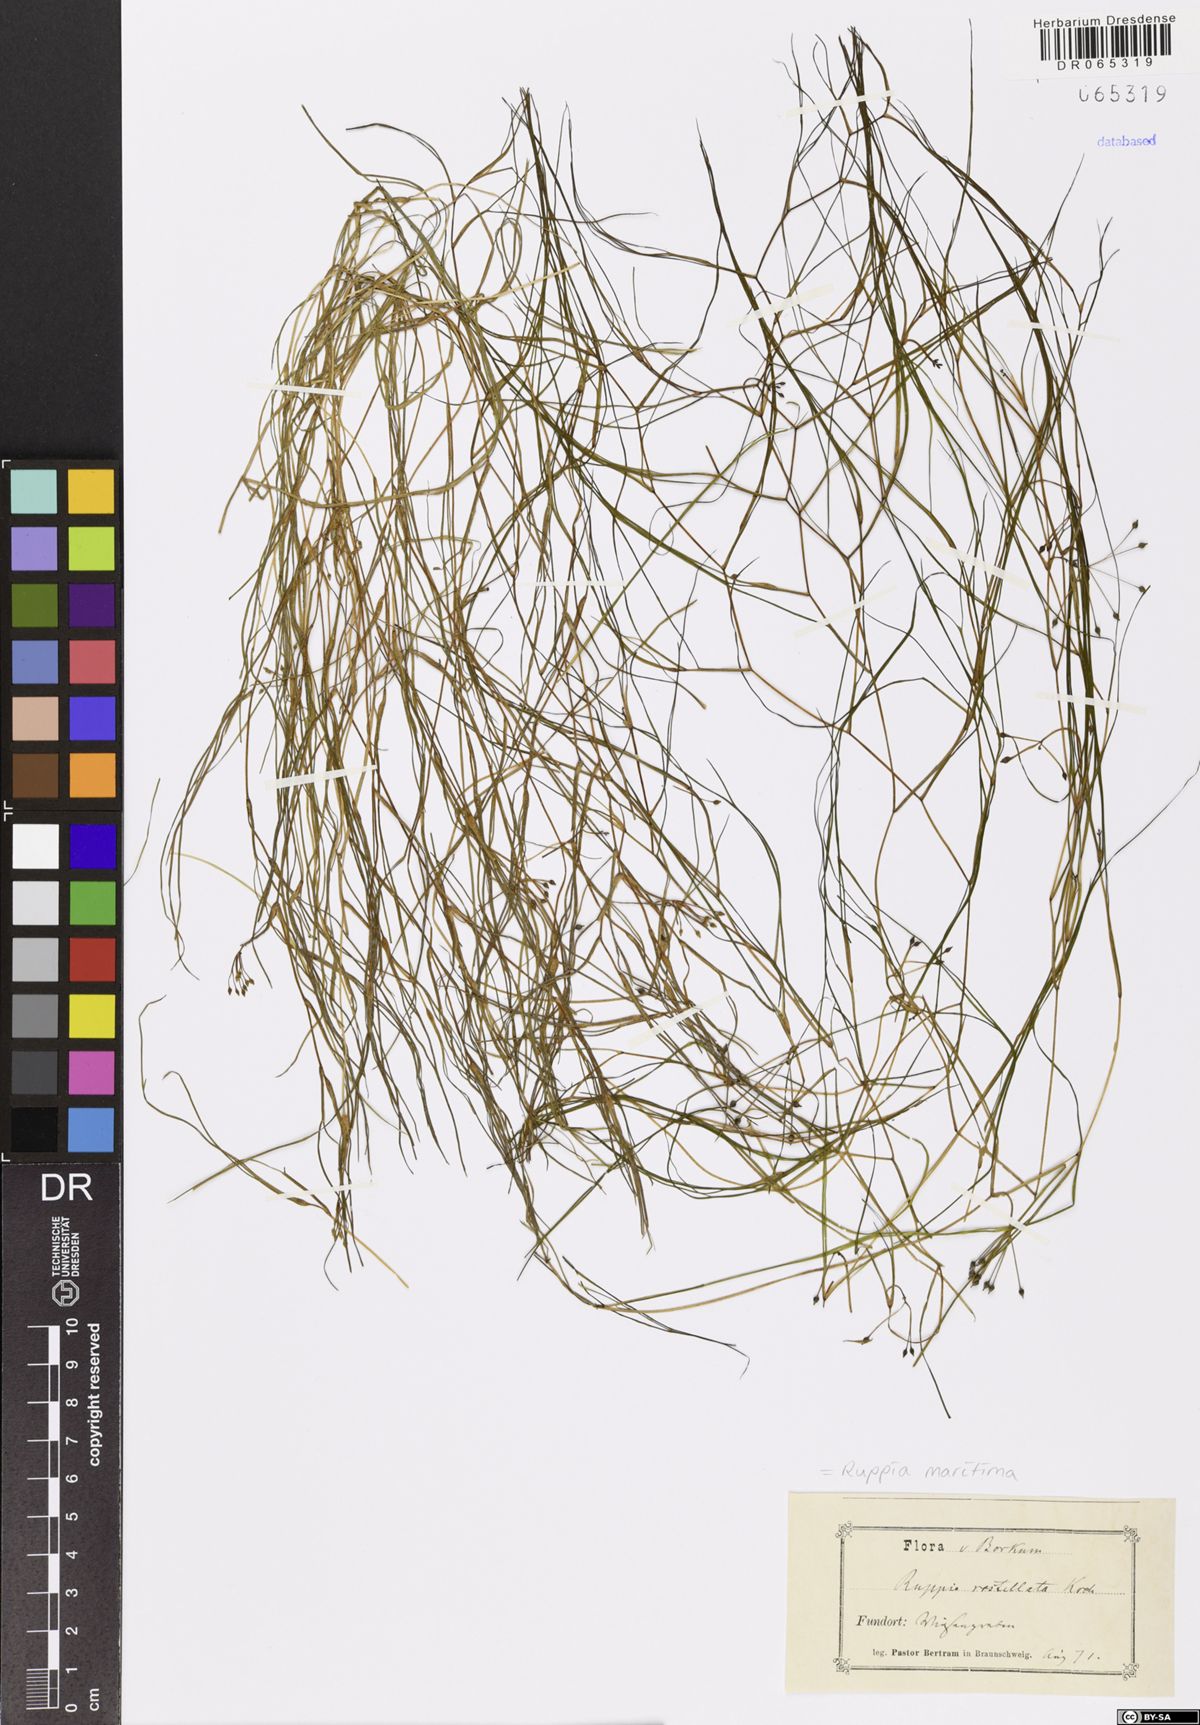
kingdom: Plantae
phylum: Tracheophyta
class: Liliopsida
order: Alismatales
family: Ruppiaceae
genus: Ruppia
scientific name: Ruppia maritima
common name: Beaked tasselweed
